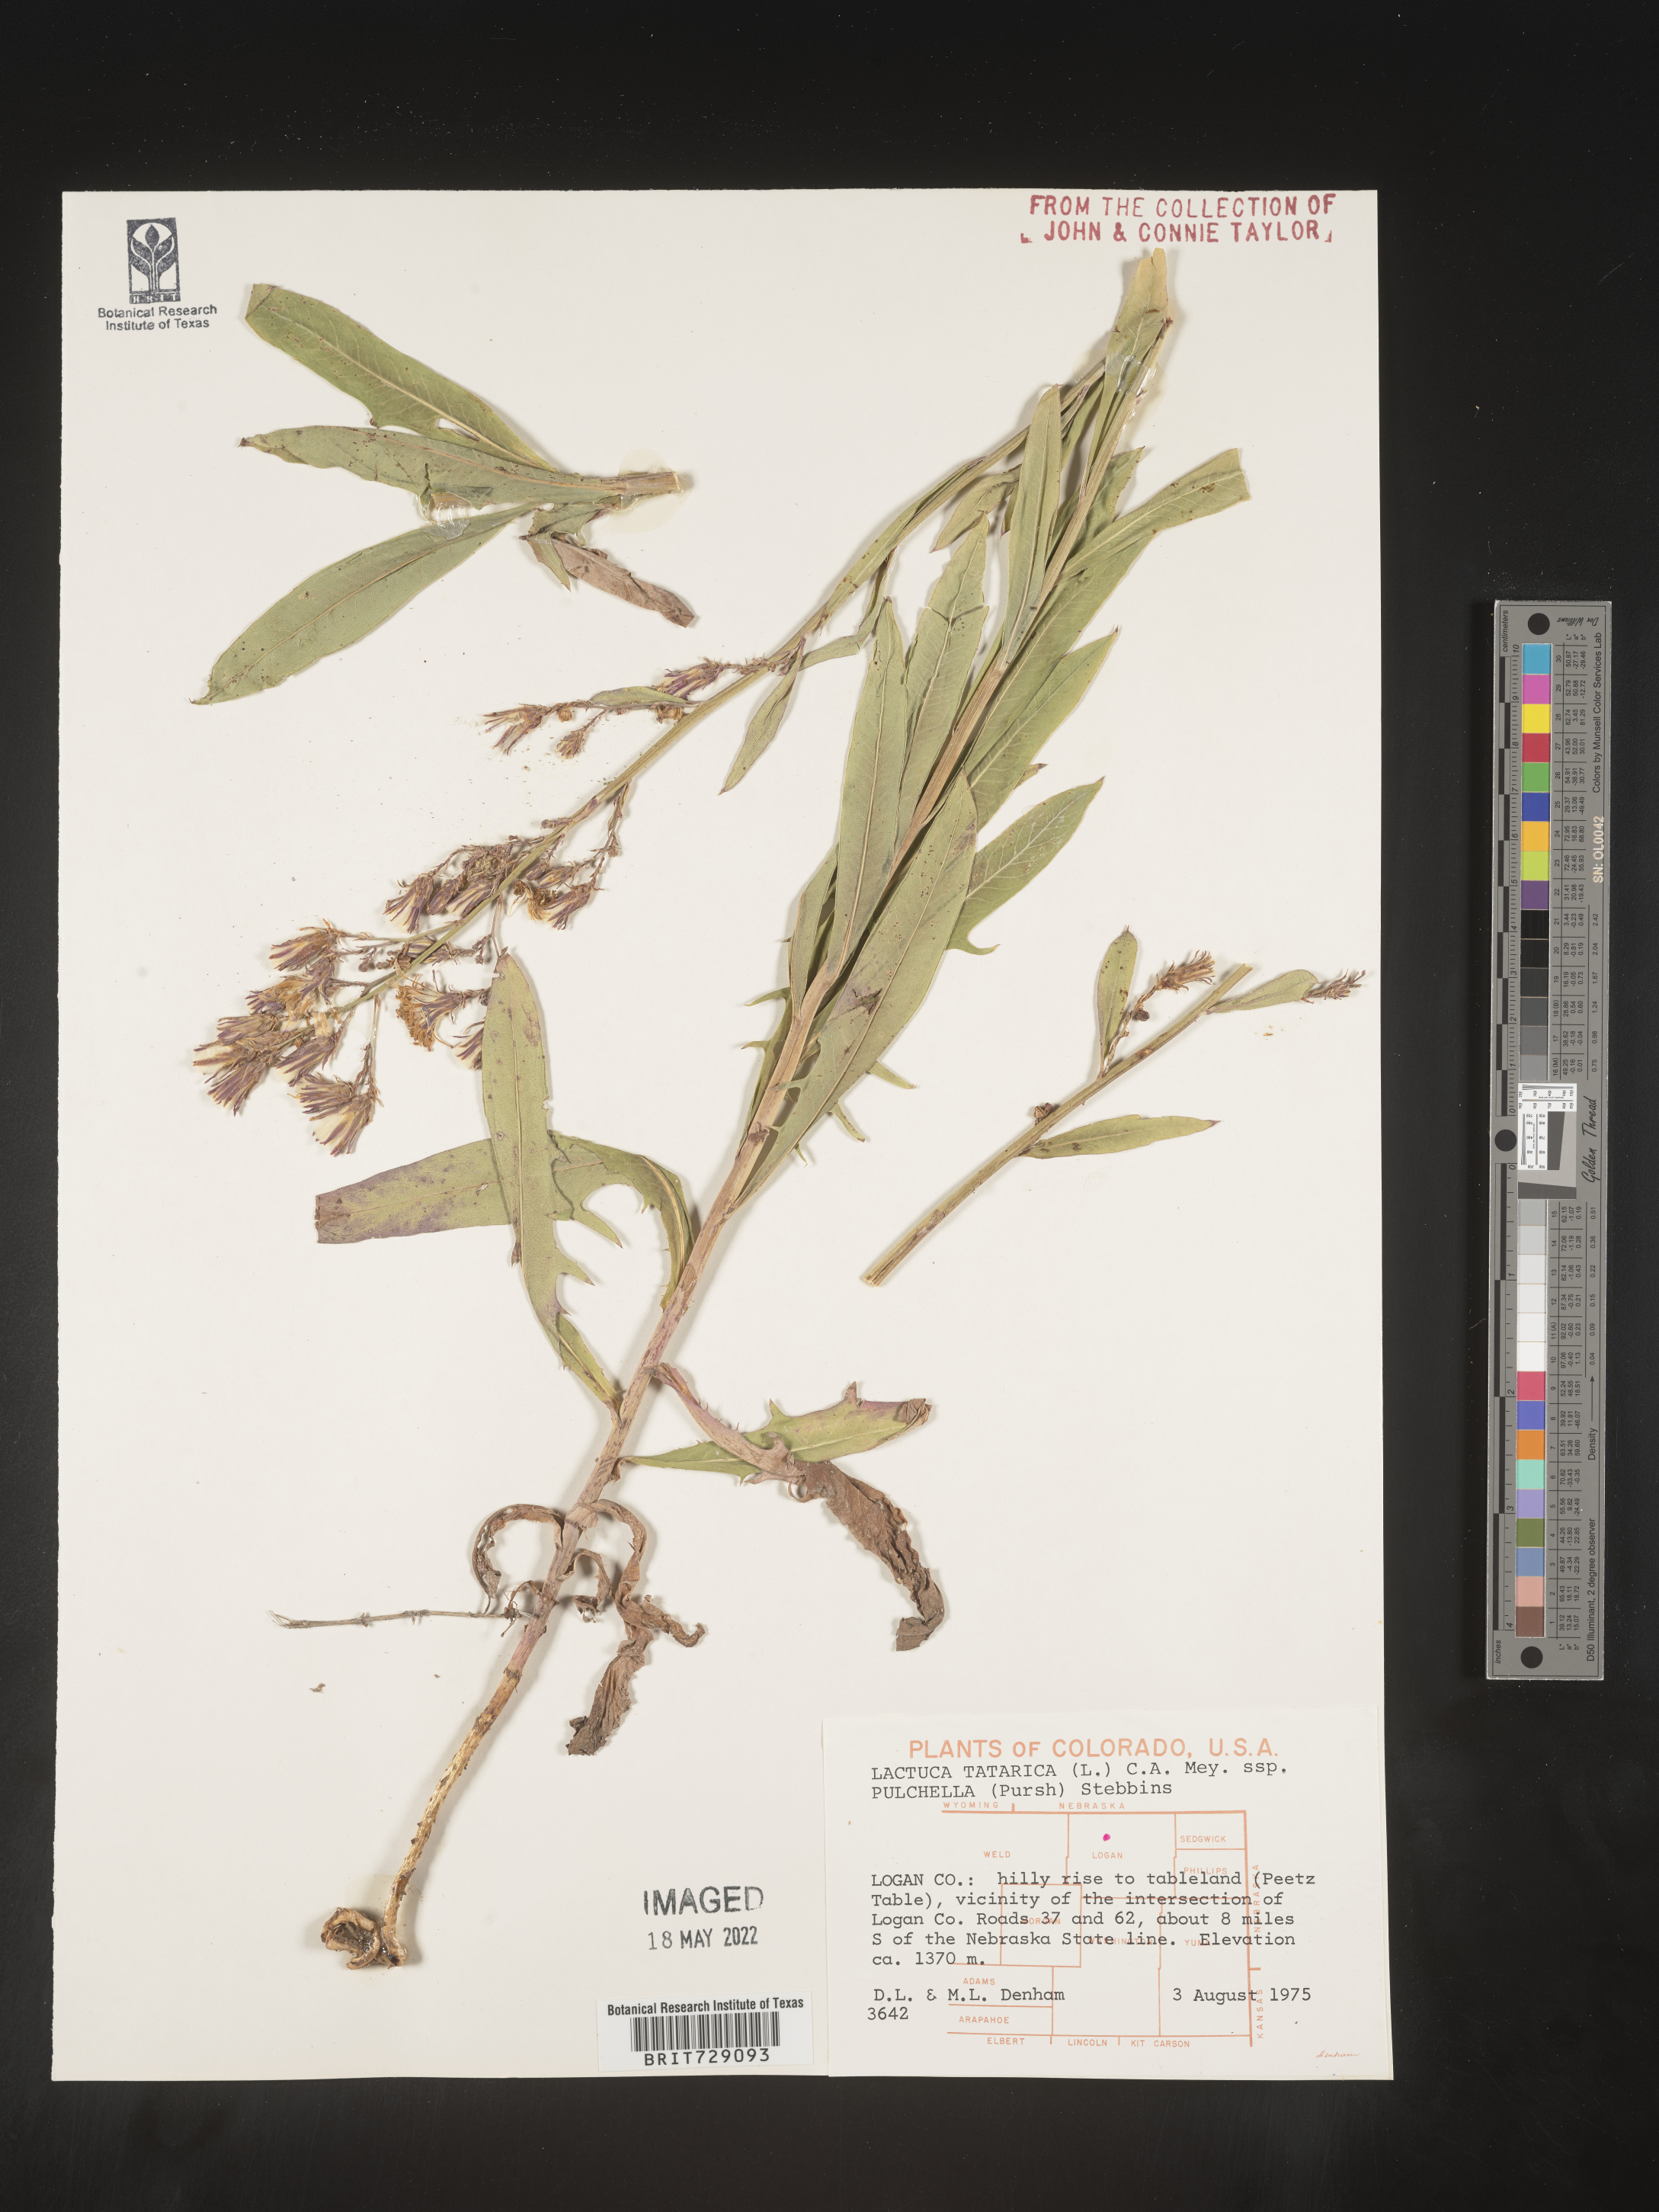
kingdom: Plantae
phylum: Tracheophyta
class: Magnoliopsida
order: Asterales
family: Asteraceae
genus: Lactuca
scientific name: Lactuca
